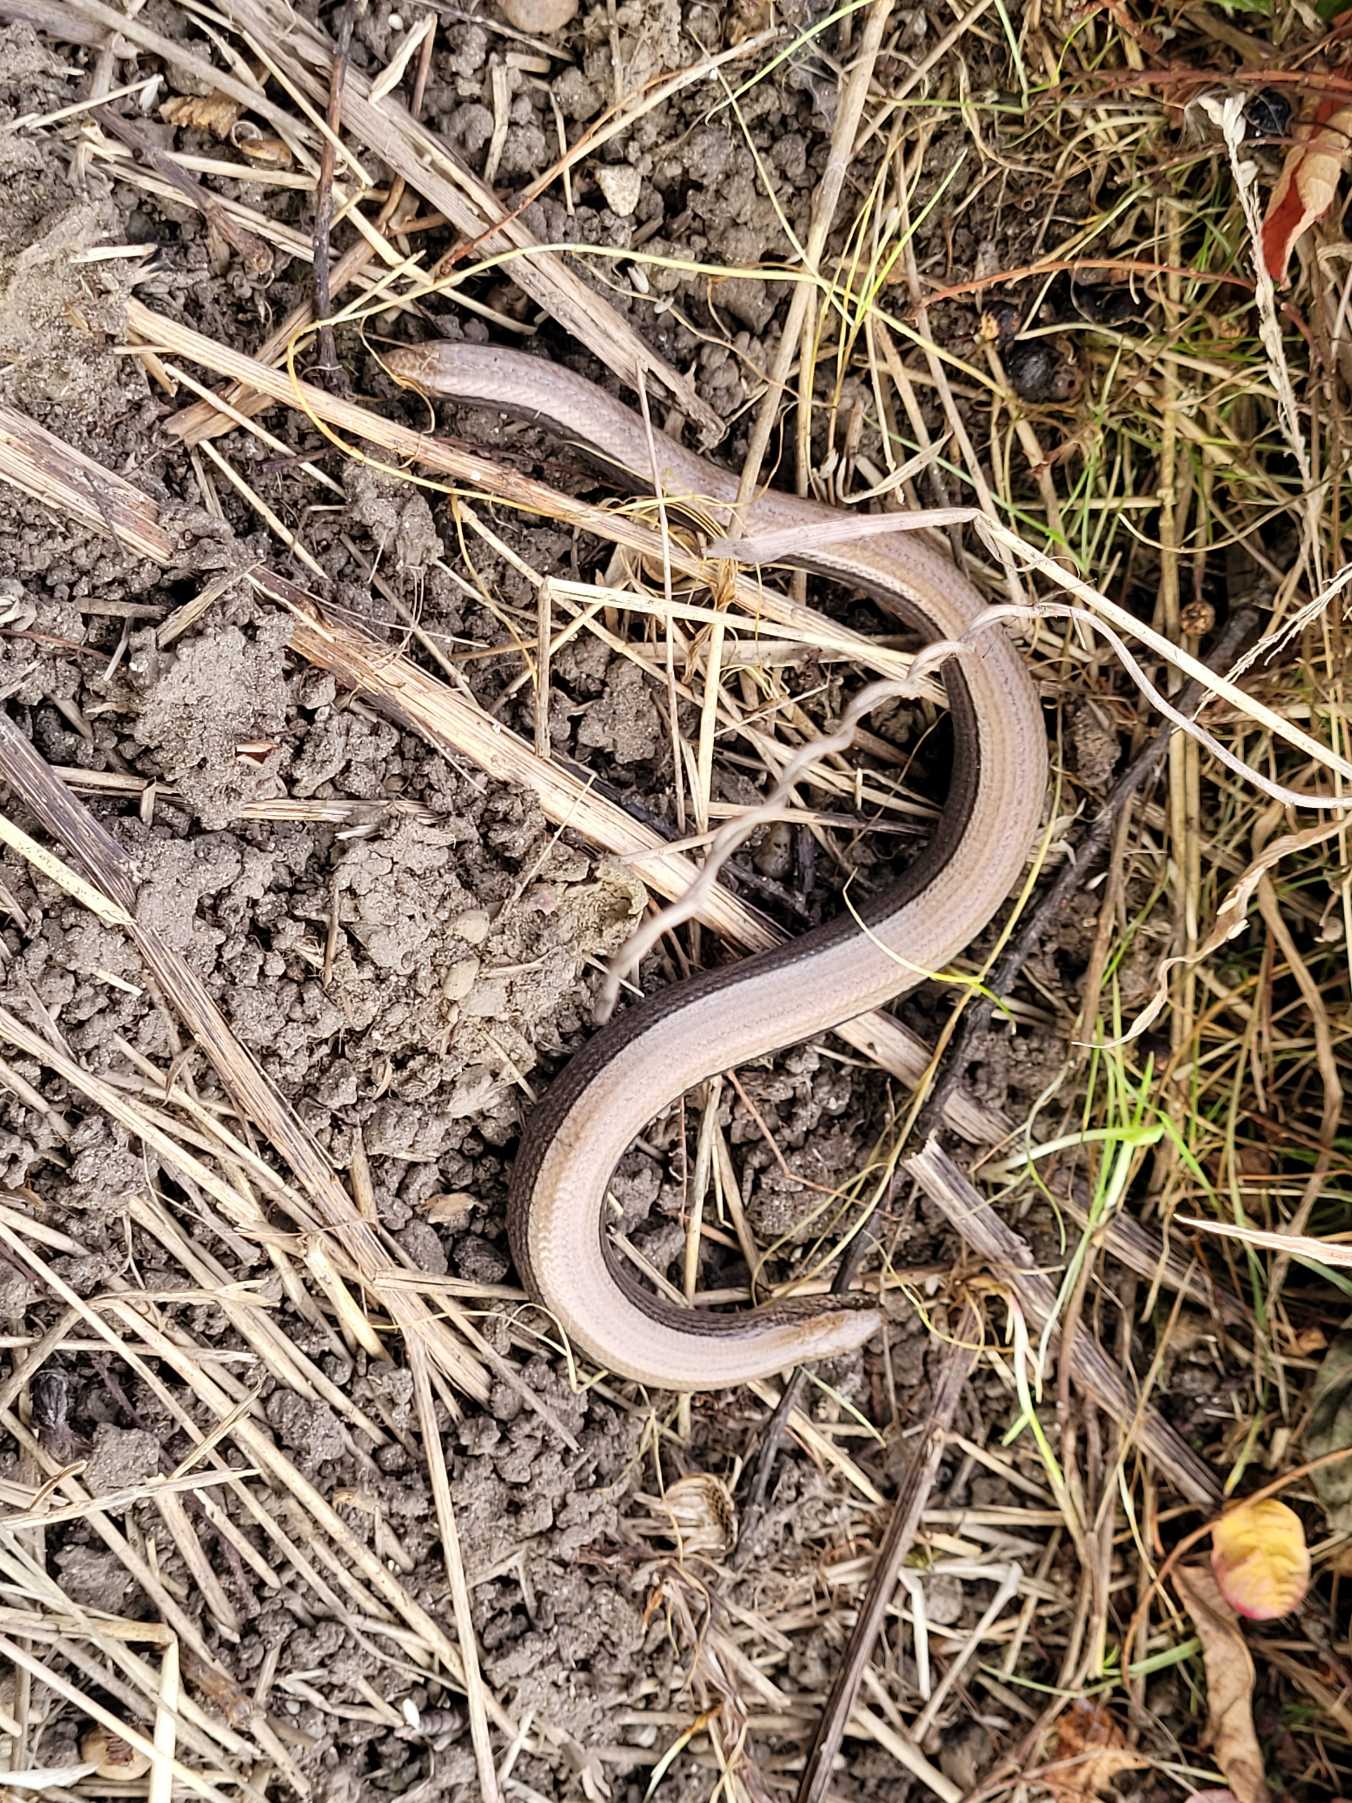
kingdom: Animalia
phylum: Chordata
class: Squamata
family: Anguidae
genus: Anguis
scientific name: Anguis fragilis
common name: Stålorm
